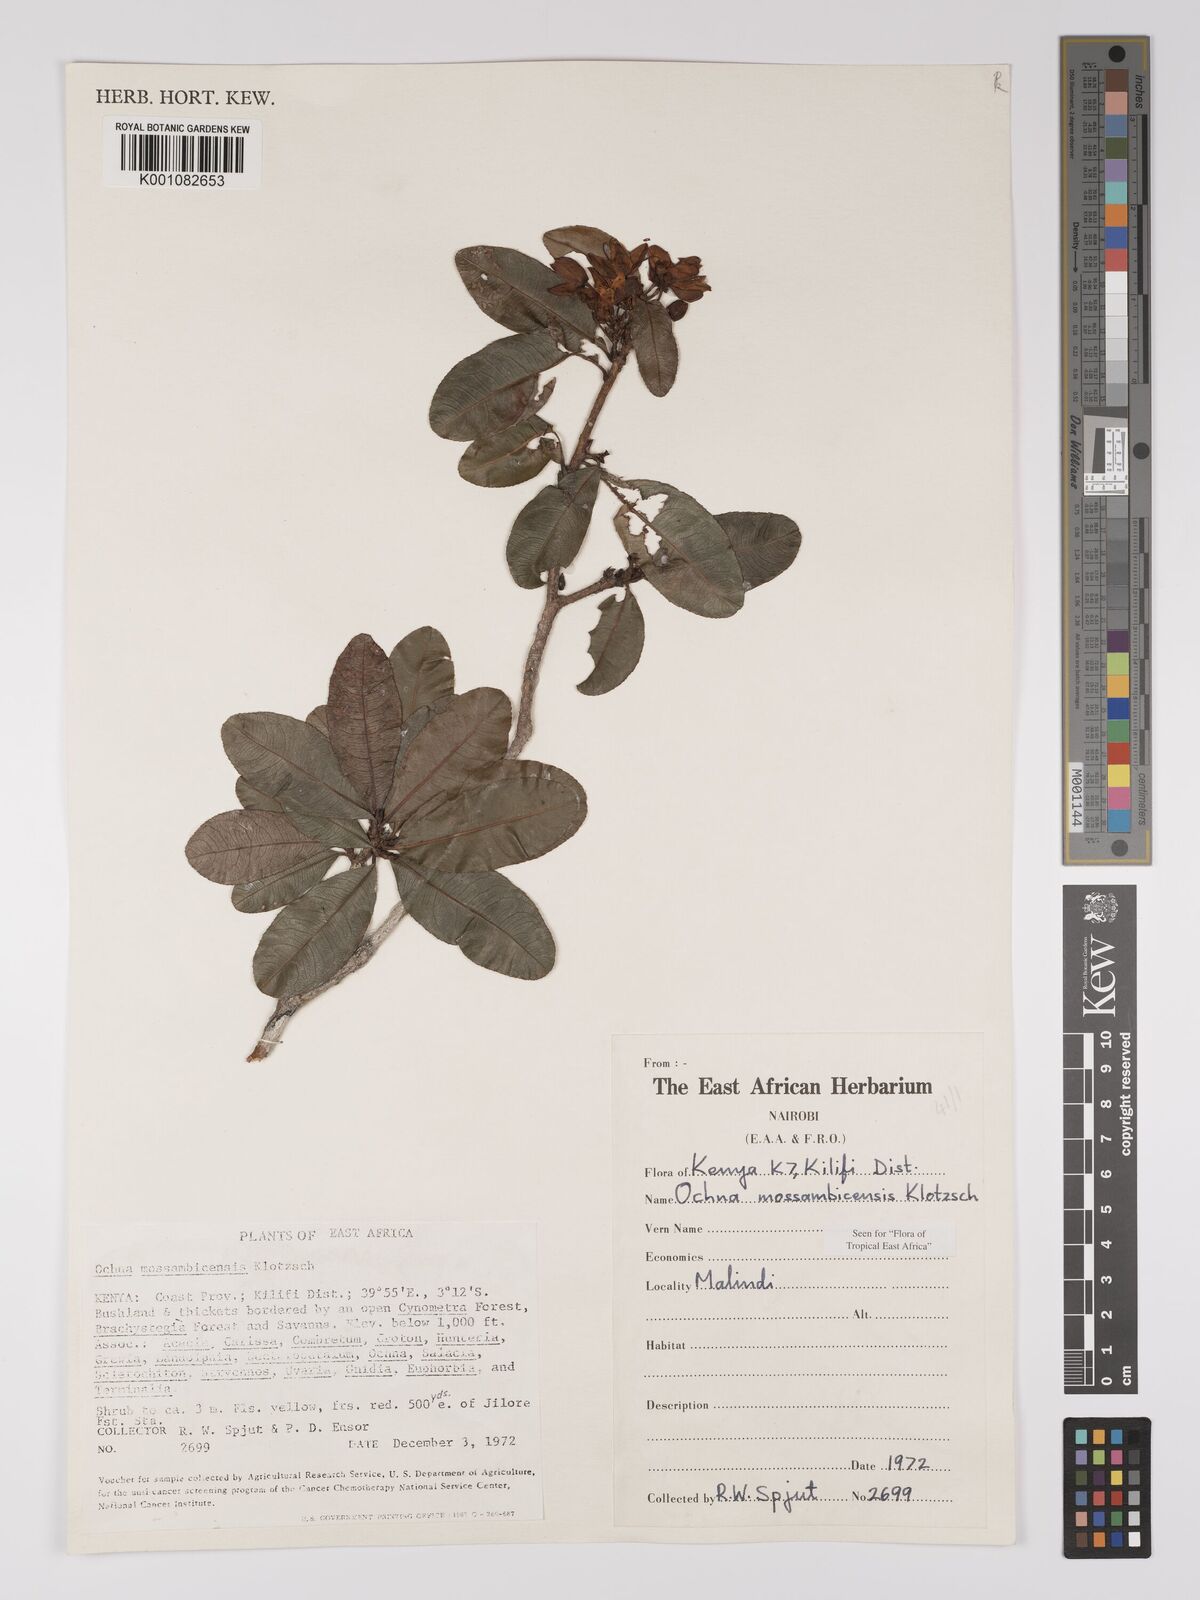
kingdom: Plantae
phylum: Tracheophyta
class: Magnoliopsida
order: Malpighiales
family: Ochnaceae
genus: Ochna
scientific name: Ochna atropurpurea
